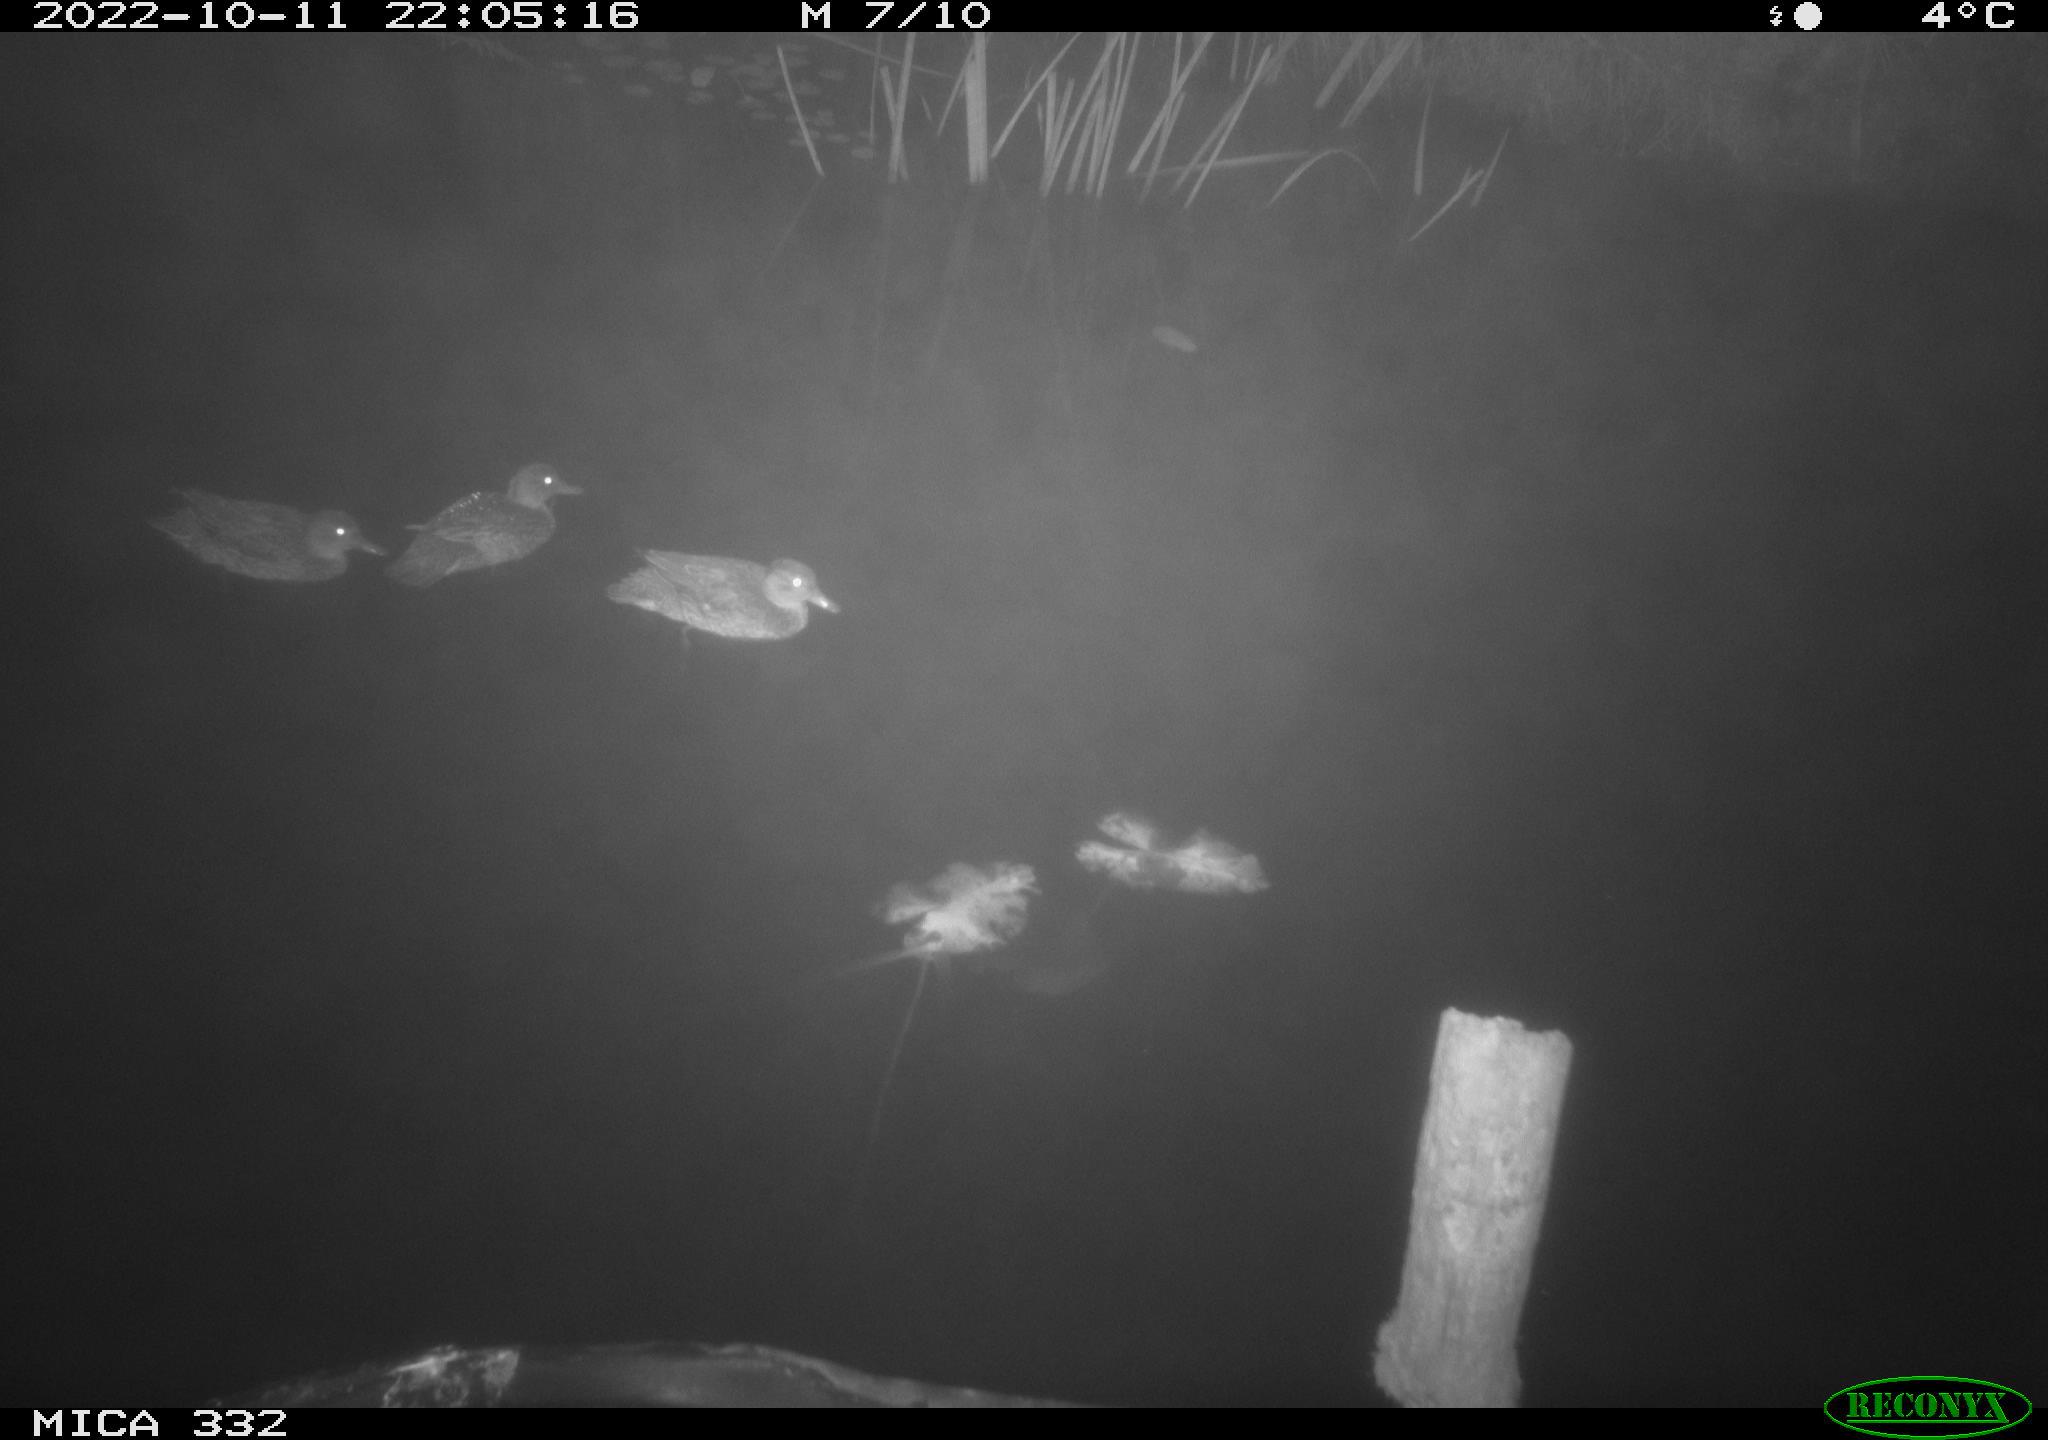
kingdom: Animalia
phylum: Chordata
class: Aves
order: Anseriformes
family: Anatidae
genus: Anas
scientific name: Anas
